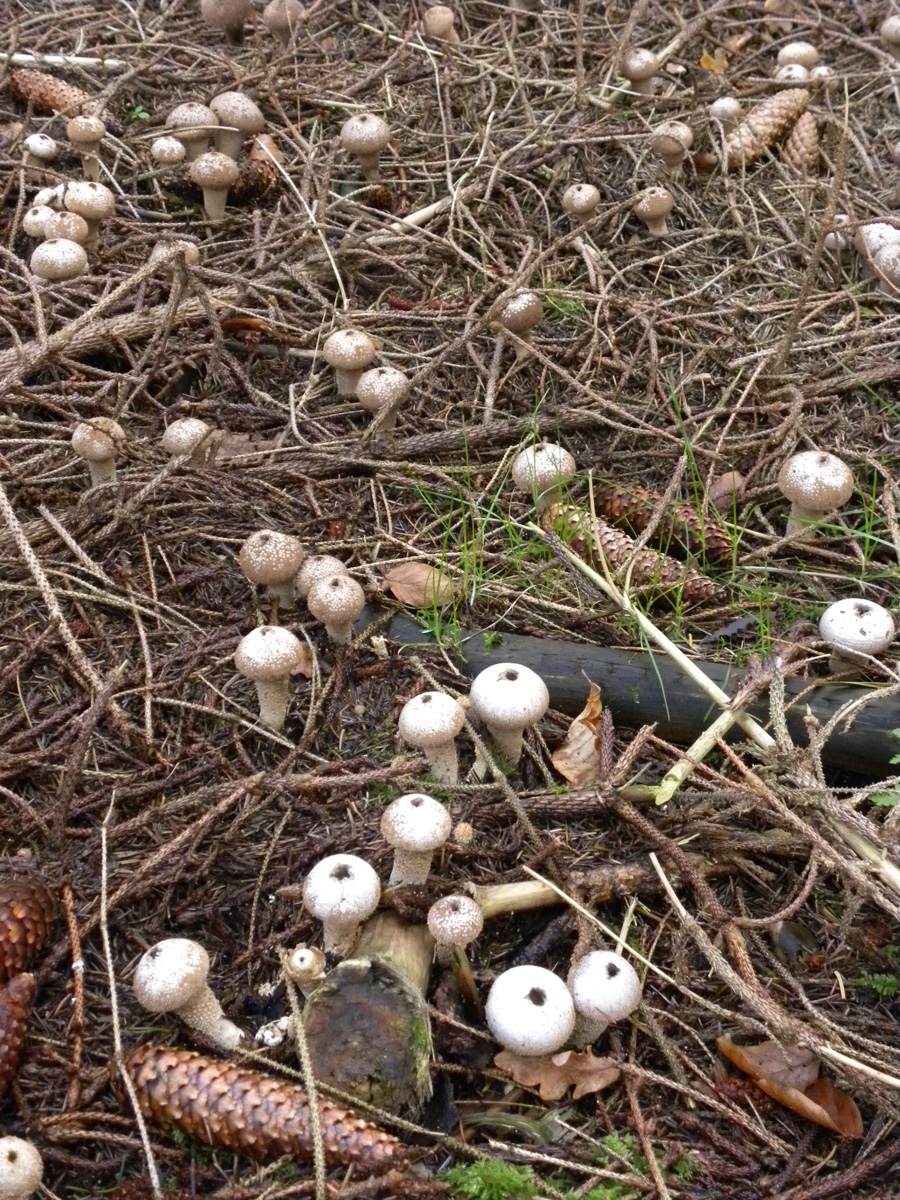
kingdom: Fungi
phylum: Basidiomycota
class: Agaricomycetes
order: Agaricales
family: Lycoperdaceae
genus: Lycoperdon
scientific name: Lycoperdon perlatum
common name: krystal-støvbold
